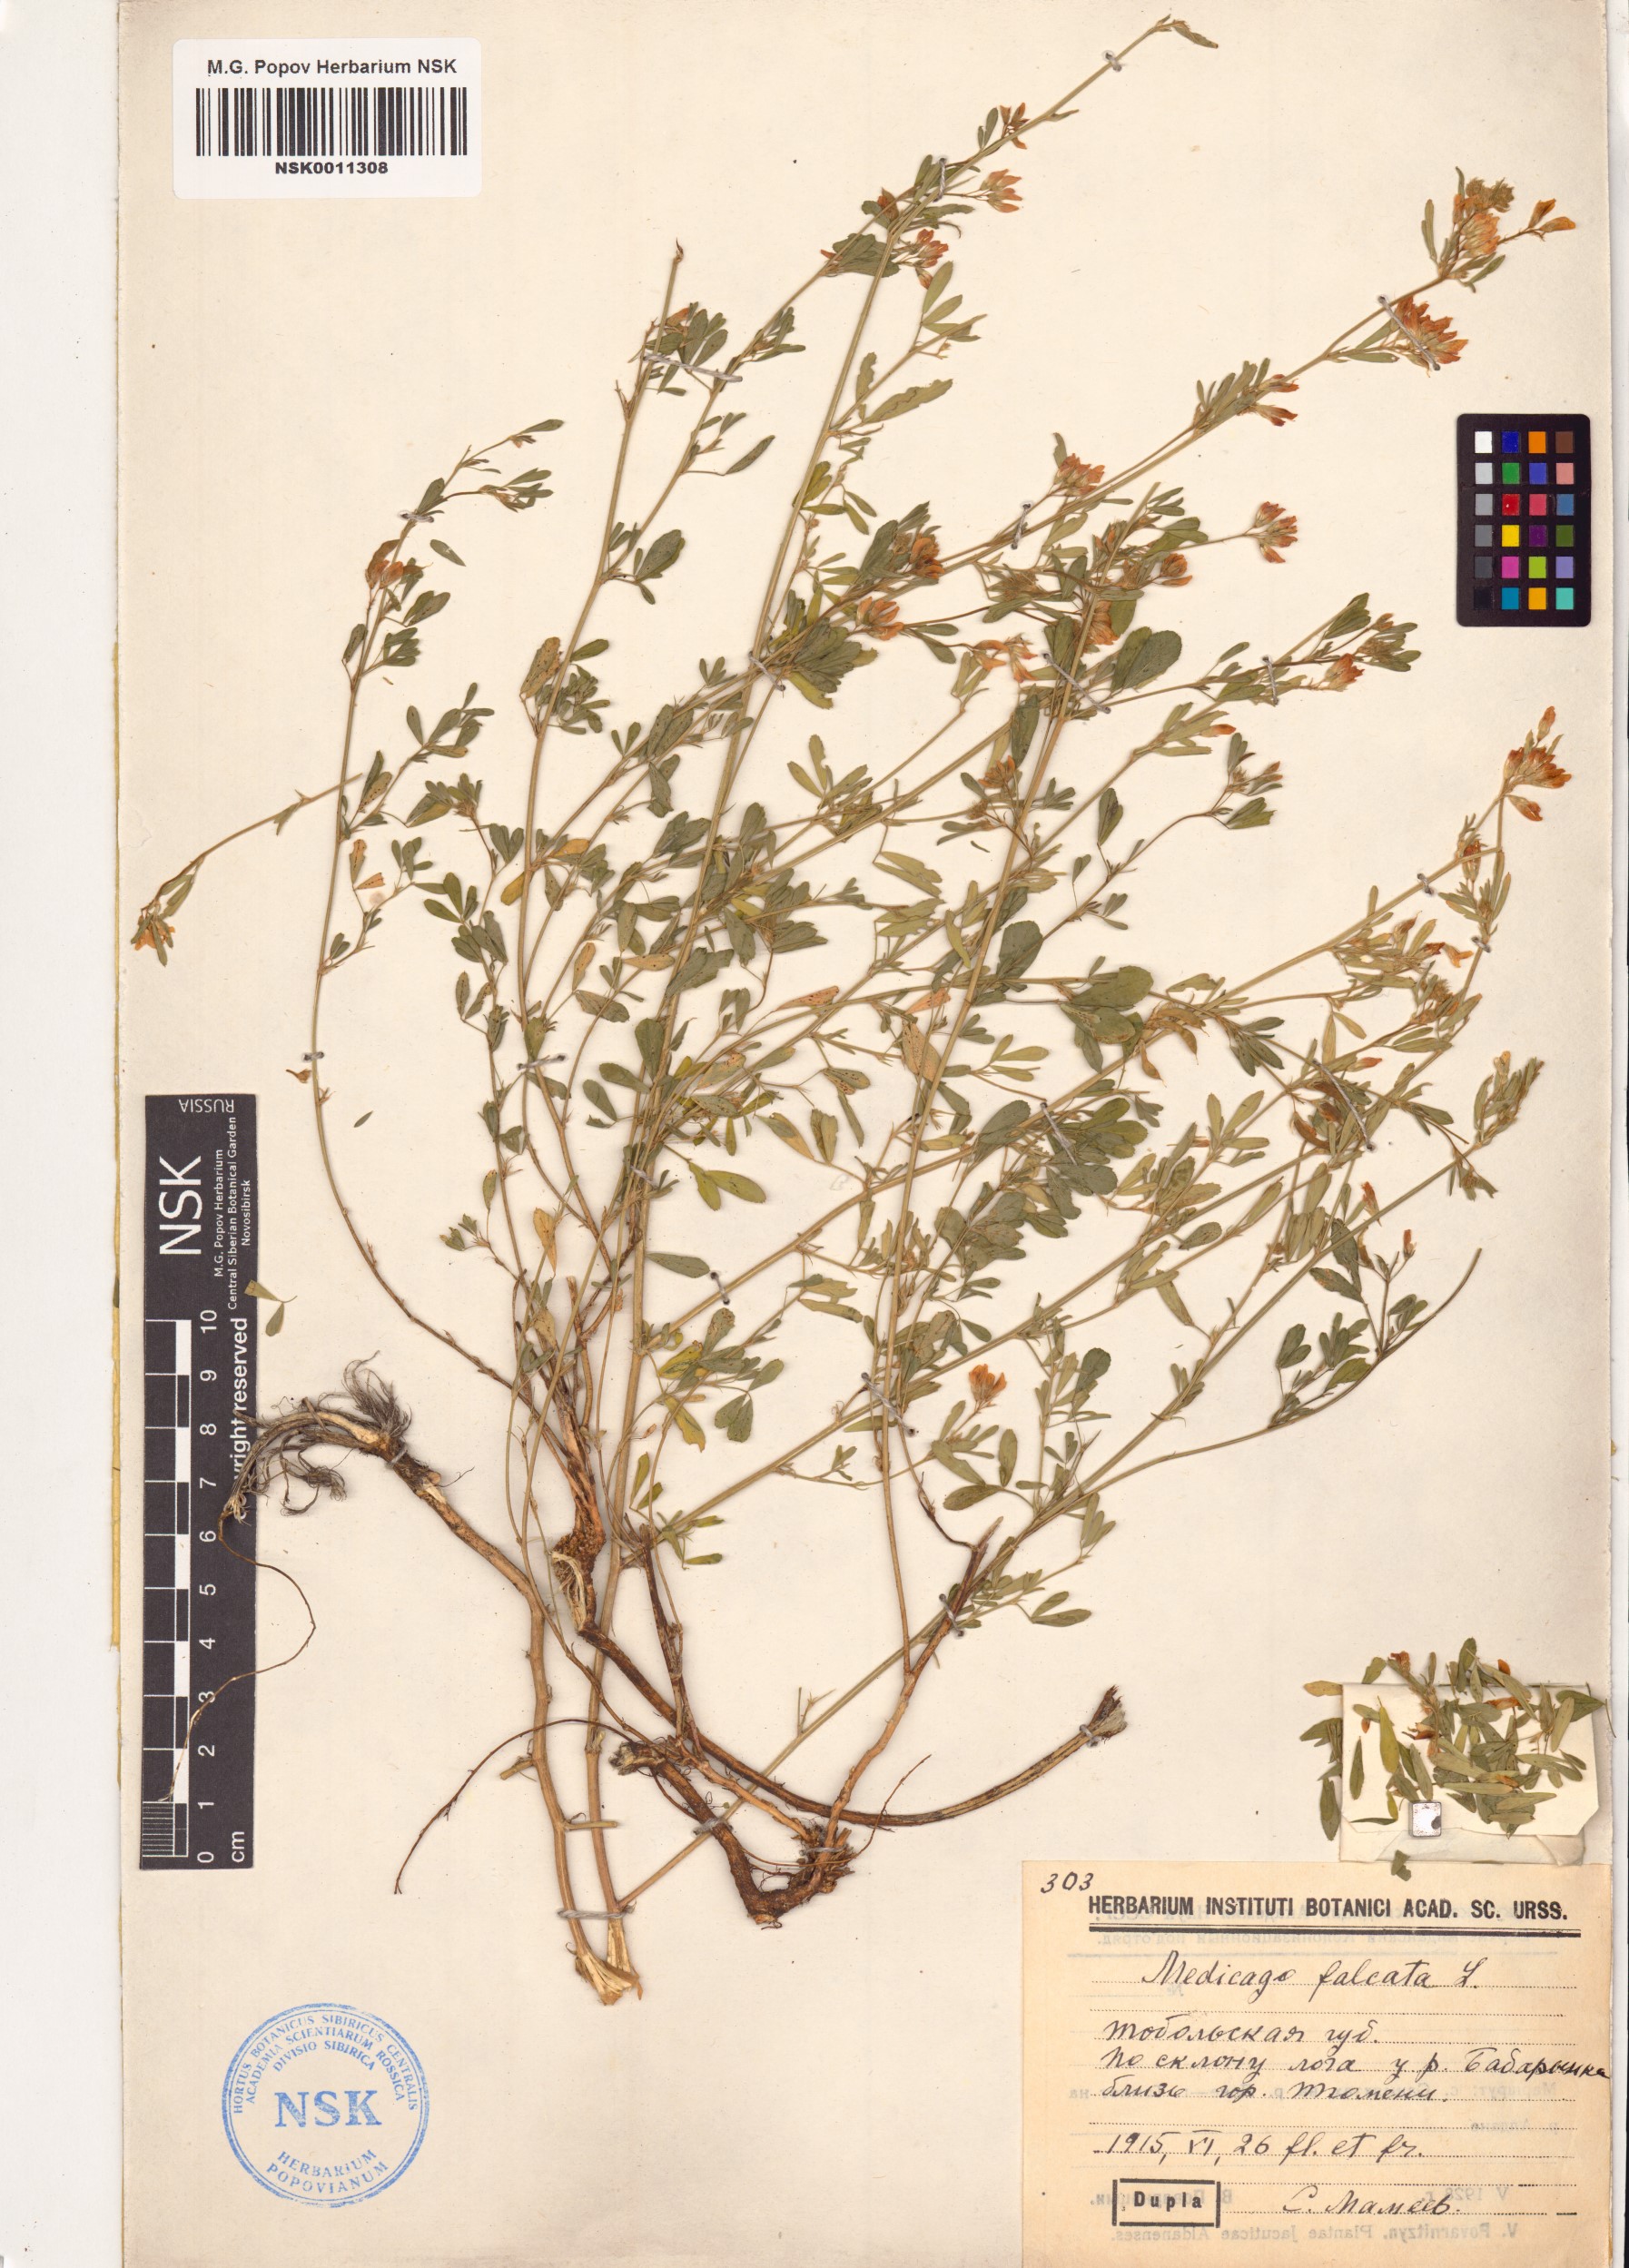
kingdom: Plantae
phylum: Tracheophyta
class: Magnoliopsida
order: Fabales
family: Fabaceae
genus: Medicago
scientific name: Medicago falcata
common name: Sickle medick
